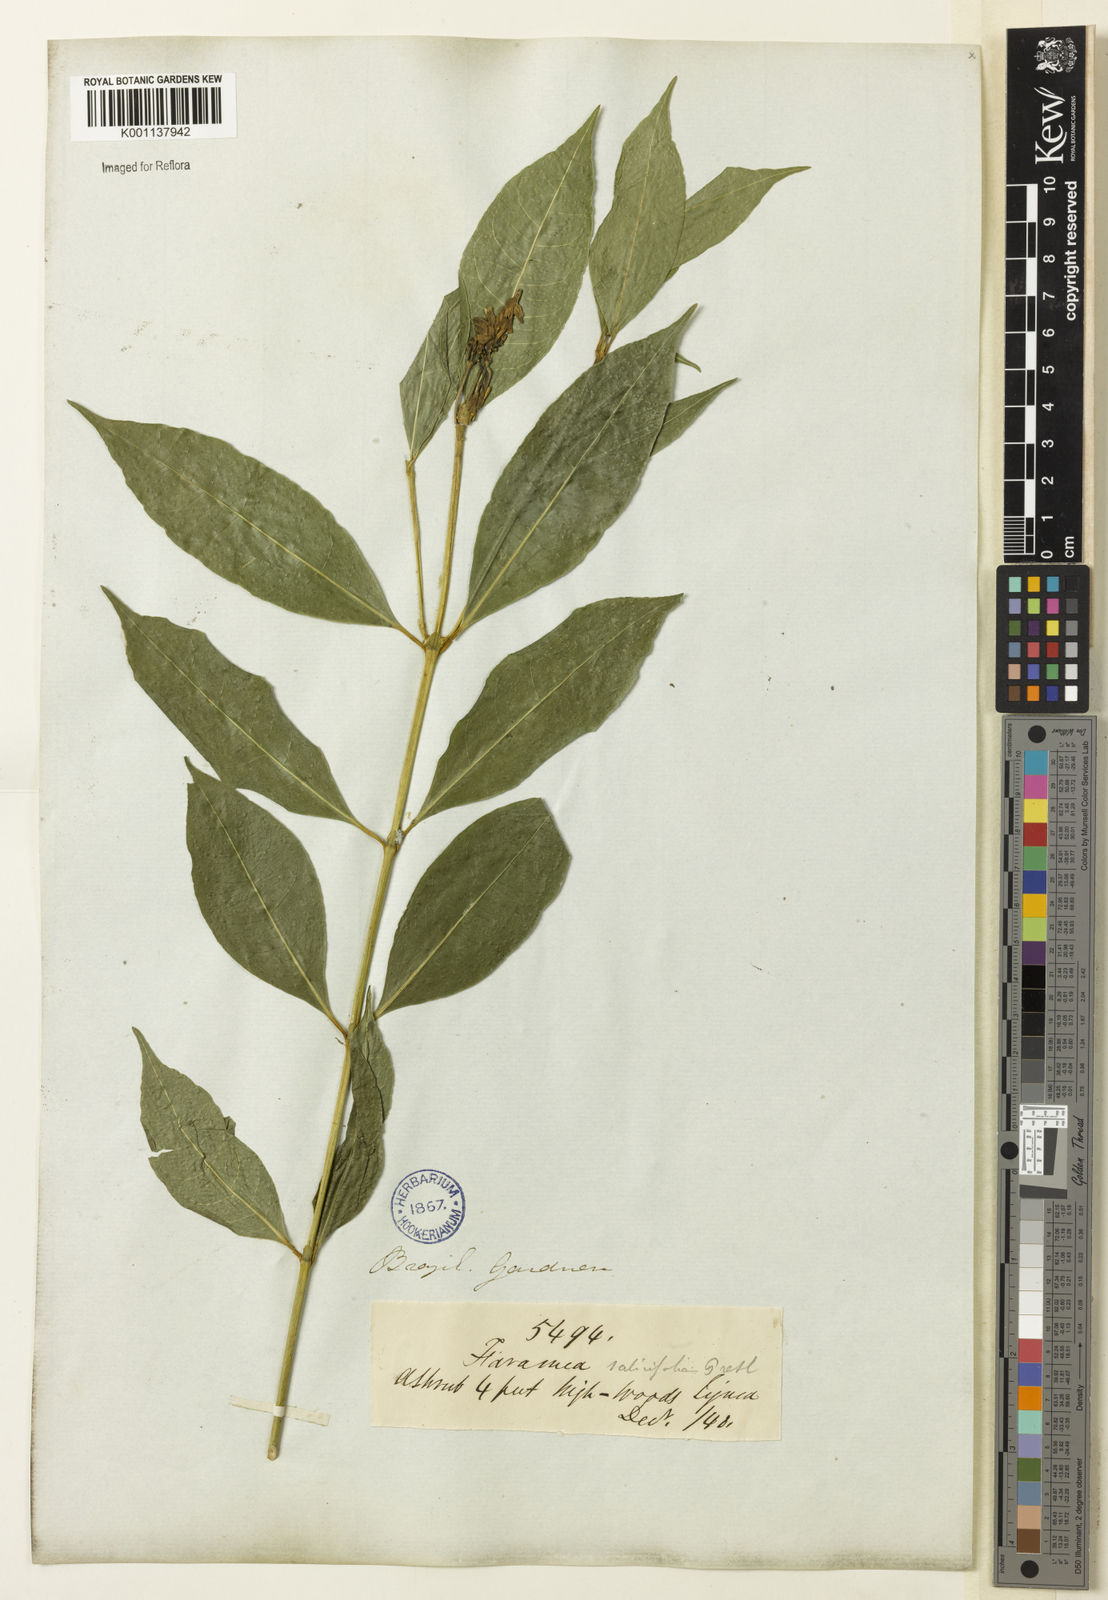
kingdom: Plantae
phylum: Tracheophyta
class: Magnoliopsida
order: Gentianales
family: Rubiaceae
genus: Faramea
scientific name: Faramea multiflora
